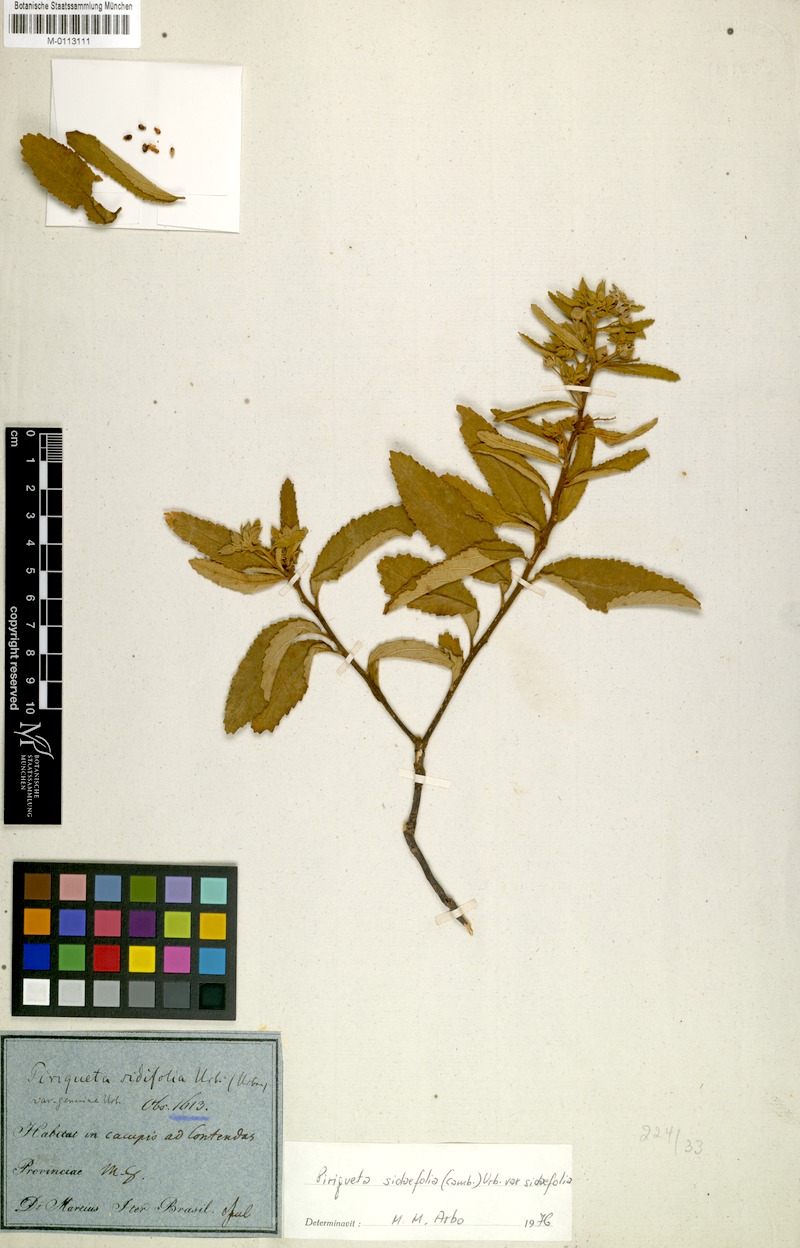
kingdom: Plantae
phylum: Tracheophyta
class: Magnoliopsida
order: Malpighiales
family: Turneraceae
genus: Piriqueta
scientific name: Piriqueta sidifolia
